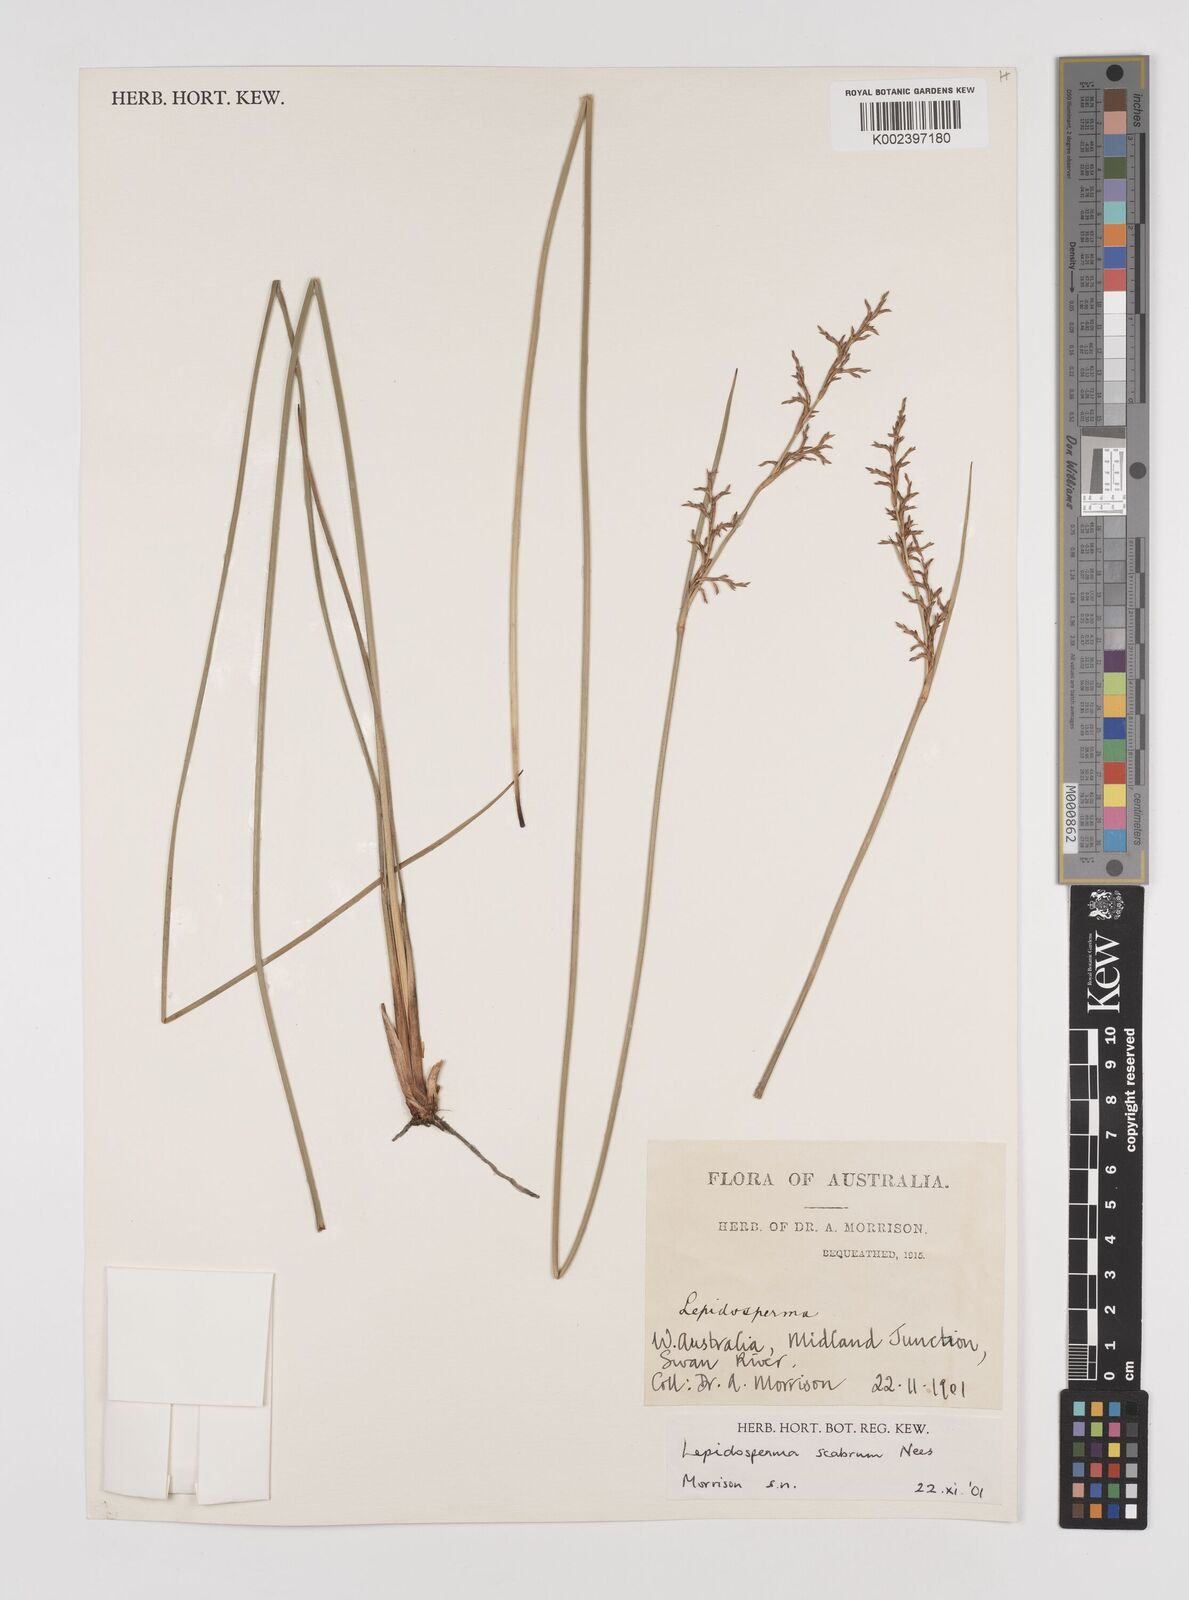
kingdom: Plantae
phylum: Tracheophyta
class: Liliopsida
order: Poales
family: Cyperaceae
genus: Lepidosperma
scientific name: Lepidosperma scabrum
